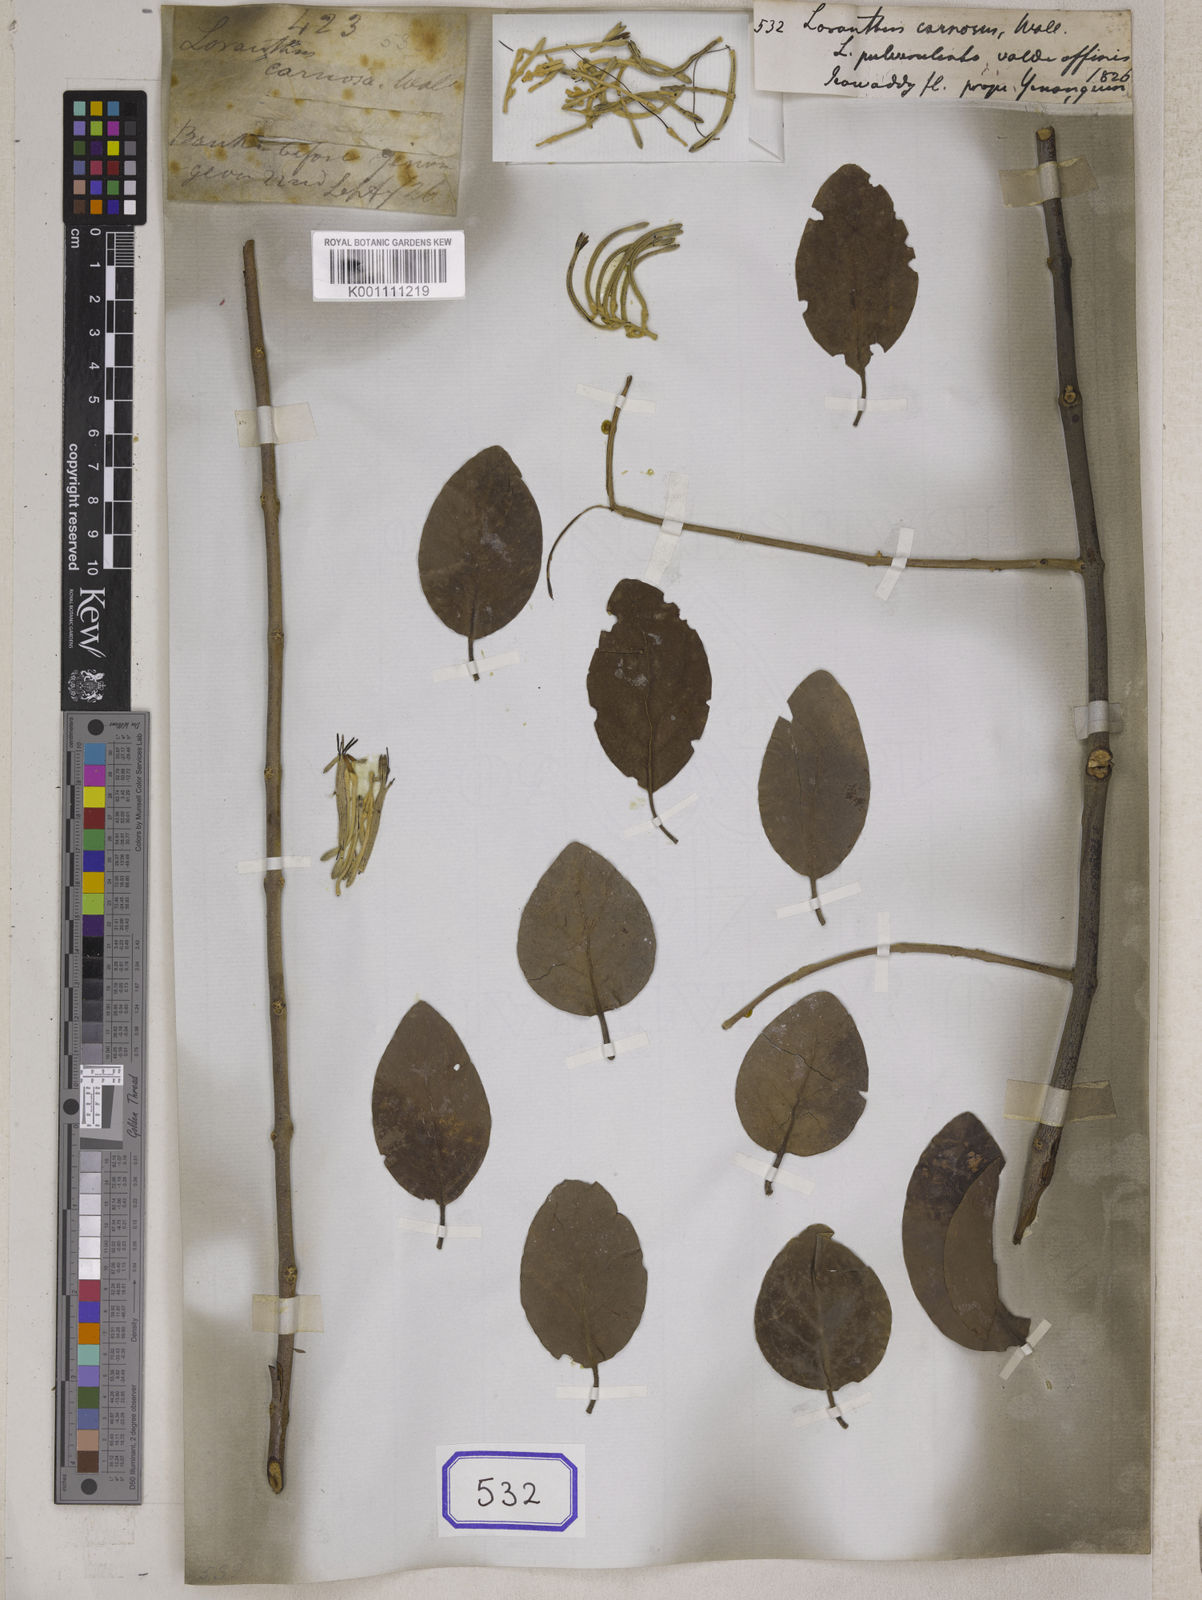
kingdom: Plantae
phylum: Tracheophyta
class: Magnoliopsida
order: Santalales
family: Loranthaceae
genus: Scurrula
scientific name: Scurrula pulverulenta
